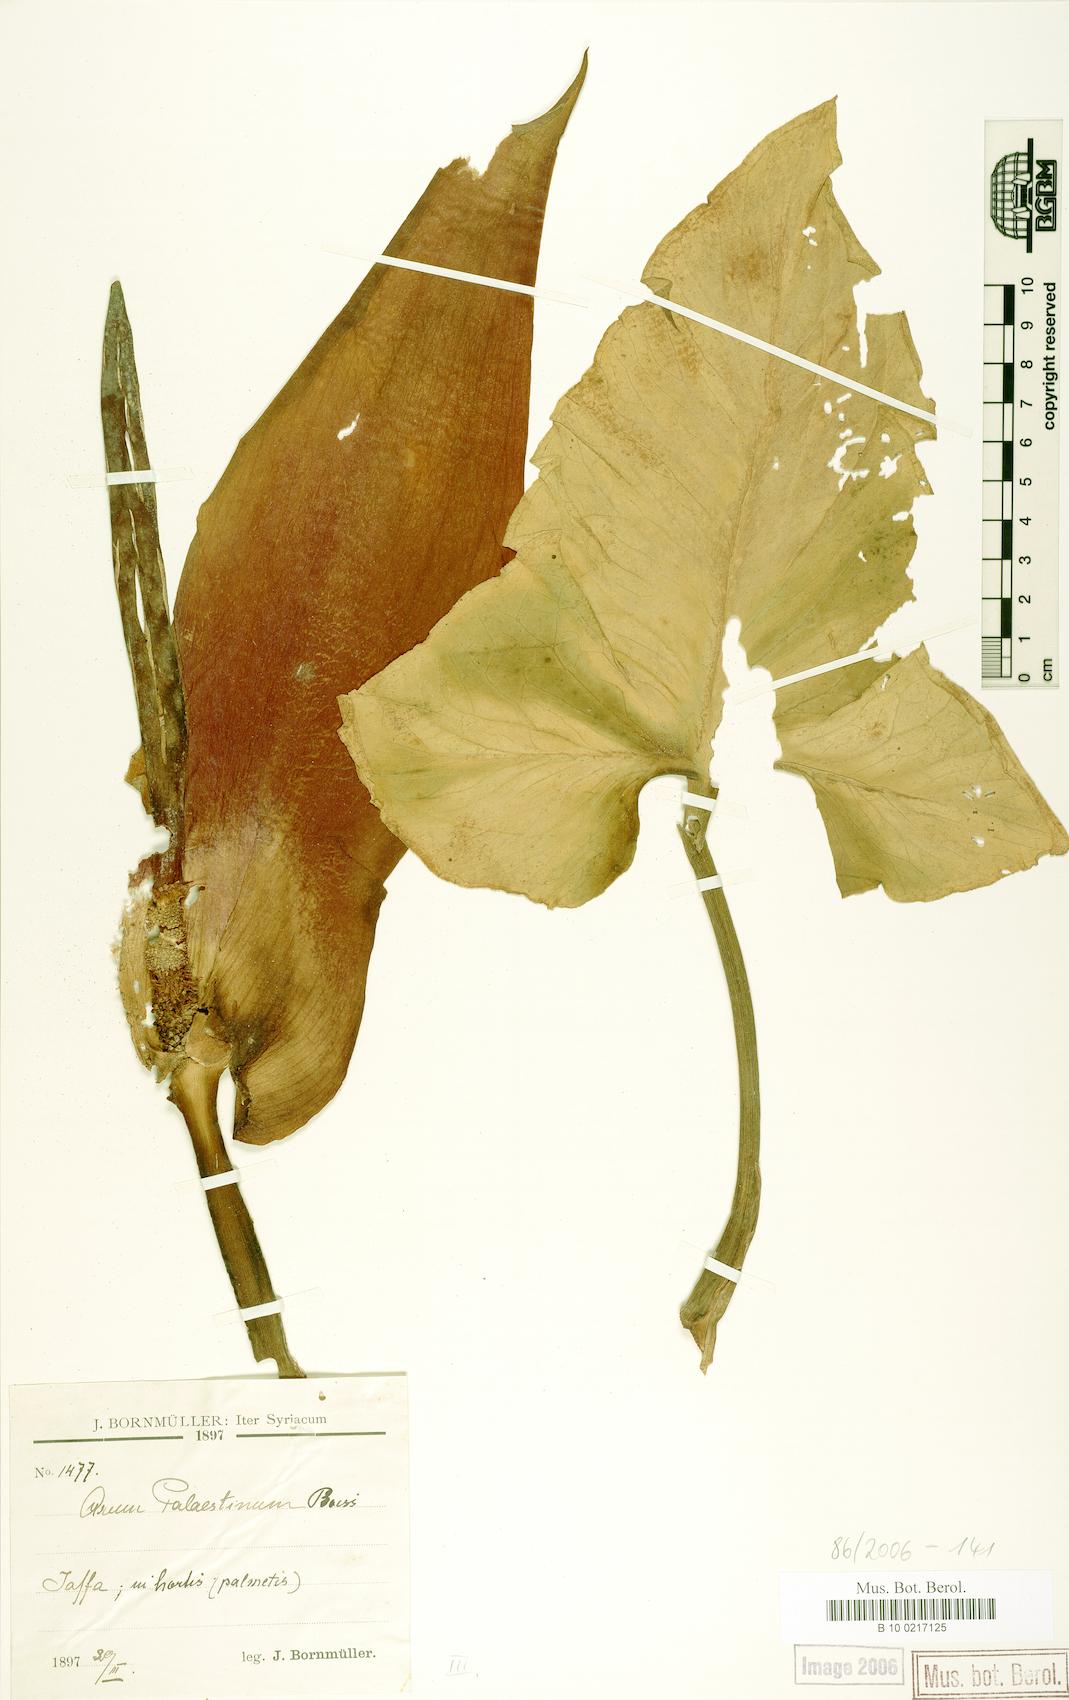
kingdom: Plantae
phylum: Tracheophyta
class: Liliopsida
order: Alismatales
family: Araceae
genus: Arum
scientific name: Arum palaestinum
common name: Solomon's lily
